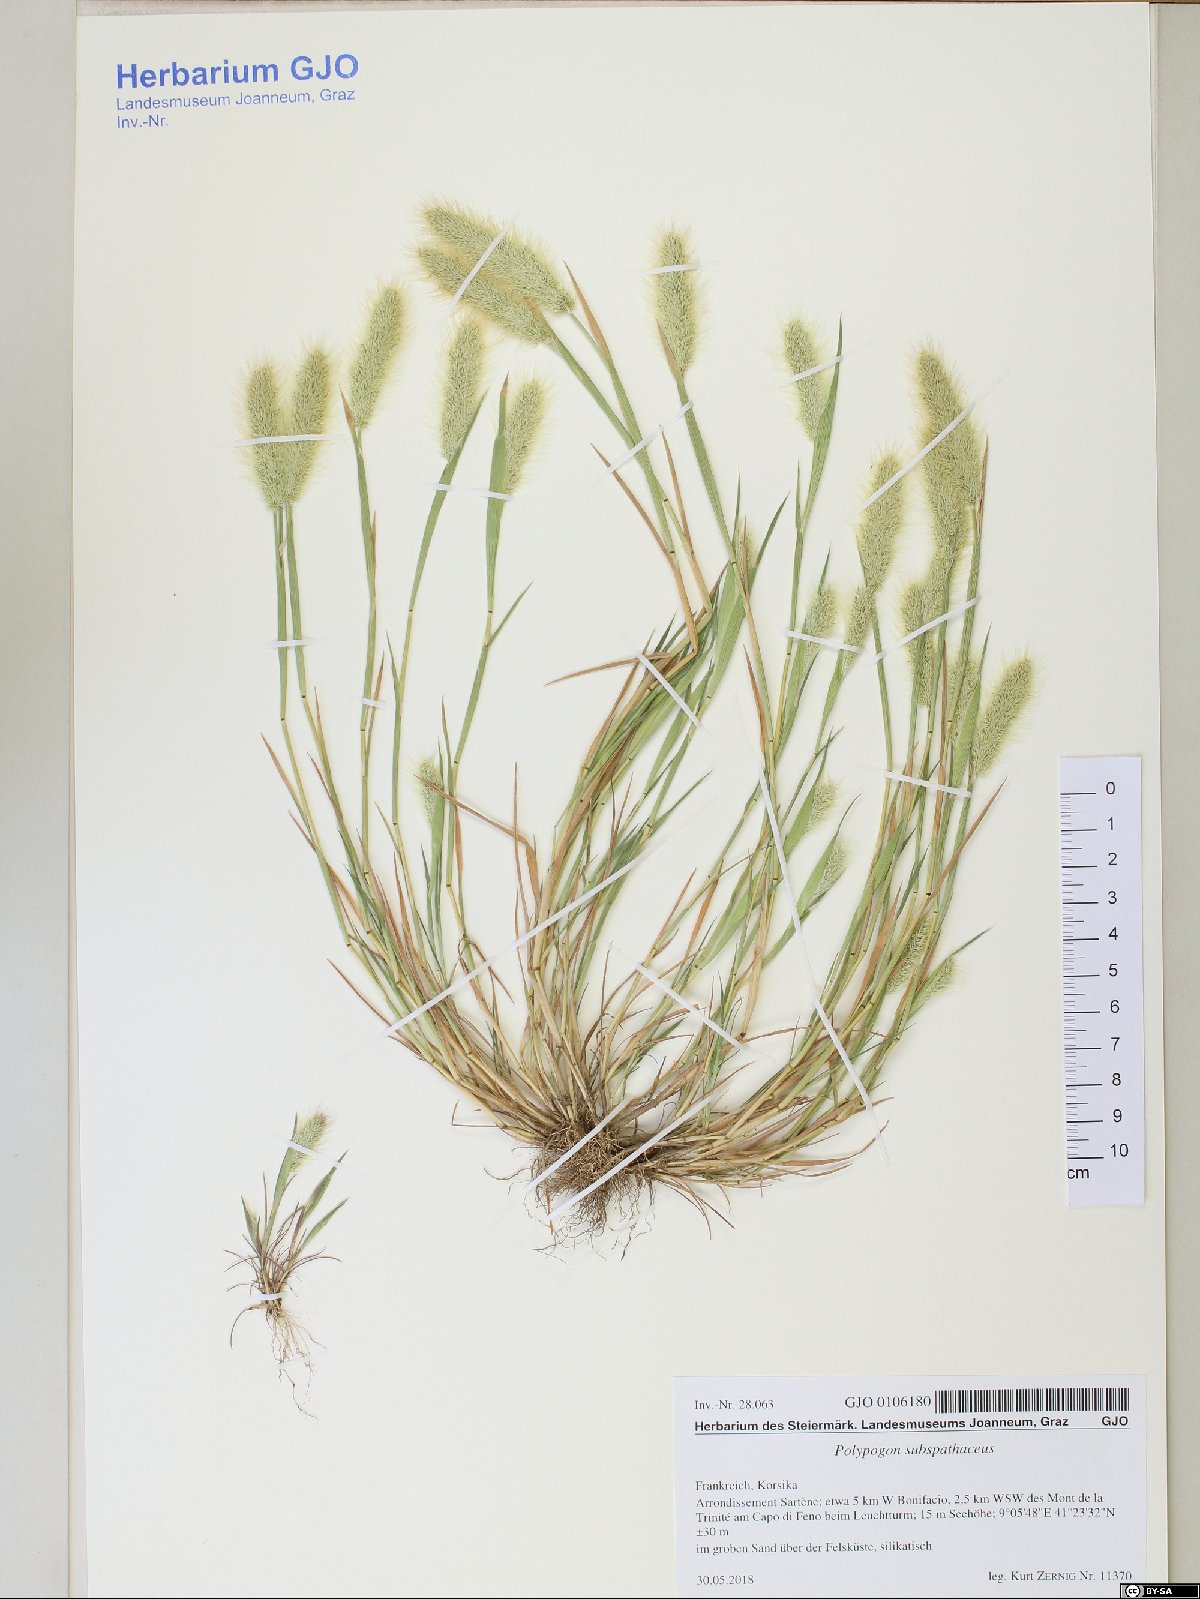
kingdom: Plantae
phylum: Tracheophyta
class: Liliopsida
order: Poales
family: Poaceae
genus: Polypogon
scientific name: Polypogon subspathaceus
